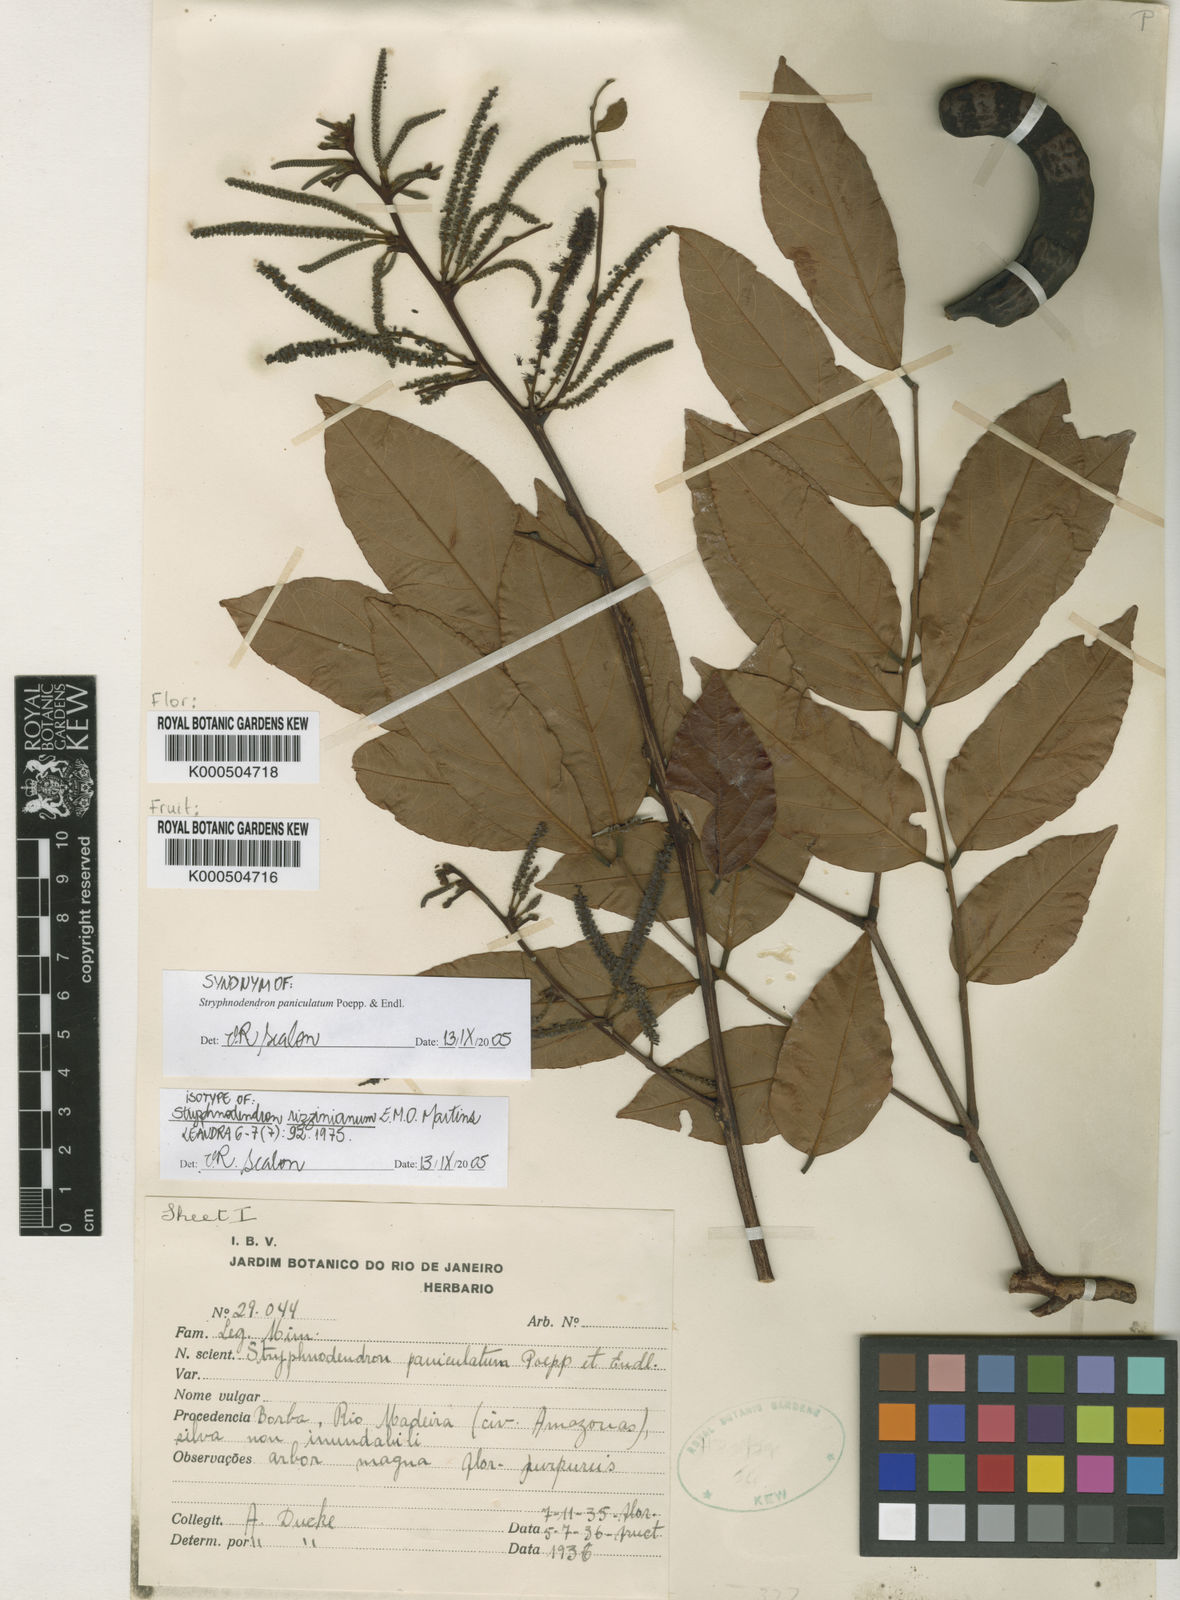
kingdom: Plantae
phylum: Tracheophyta
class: Magnoliopsida
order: Fabales
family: Fabaceae
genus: Stryphnodendron
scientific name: Stryphnodendron paniculatum
